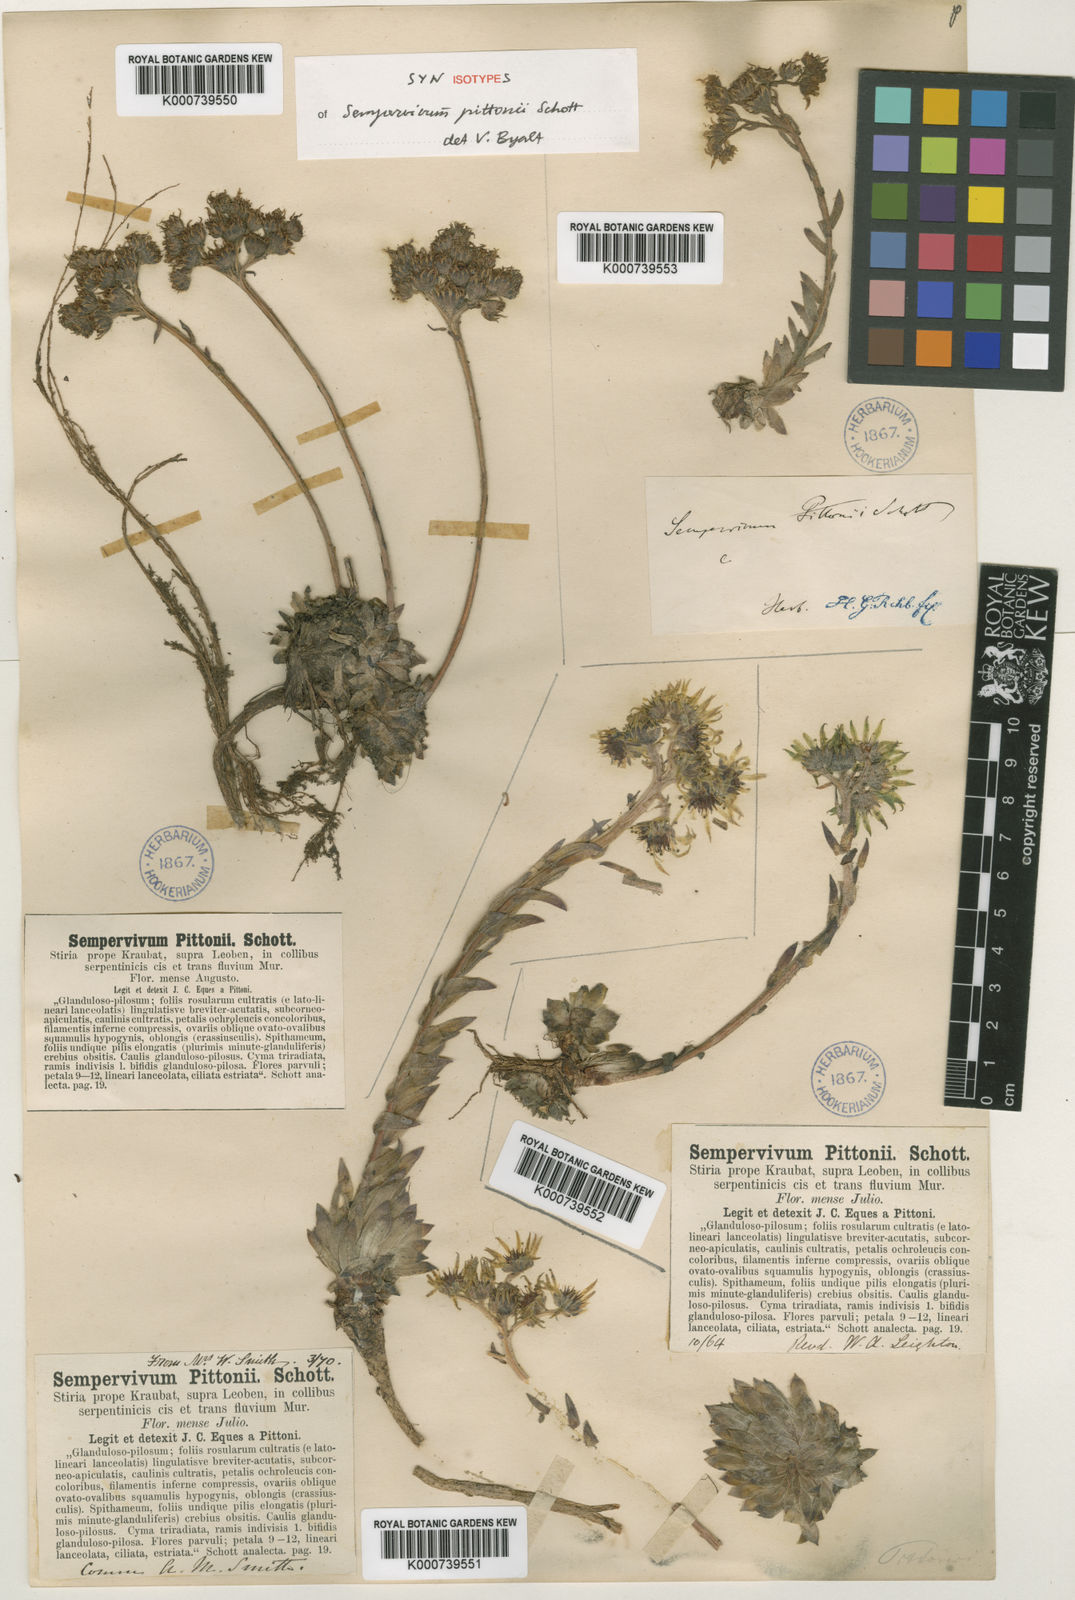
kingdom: Plantae
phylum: Tracheophyta
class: Magnoliopsida
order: Saxifragales
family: Crassulaceae
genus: Sempervivum
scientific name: Sempervivum pittonii
